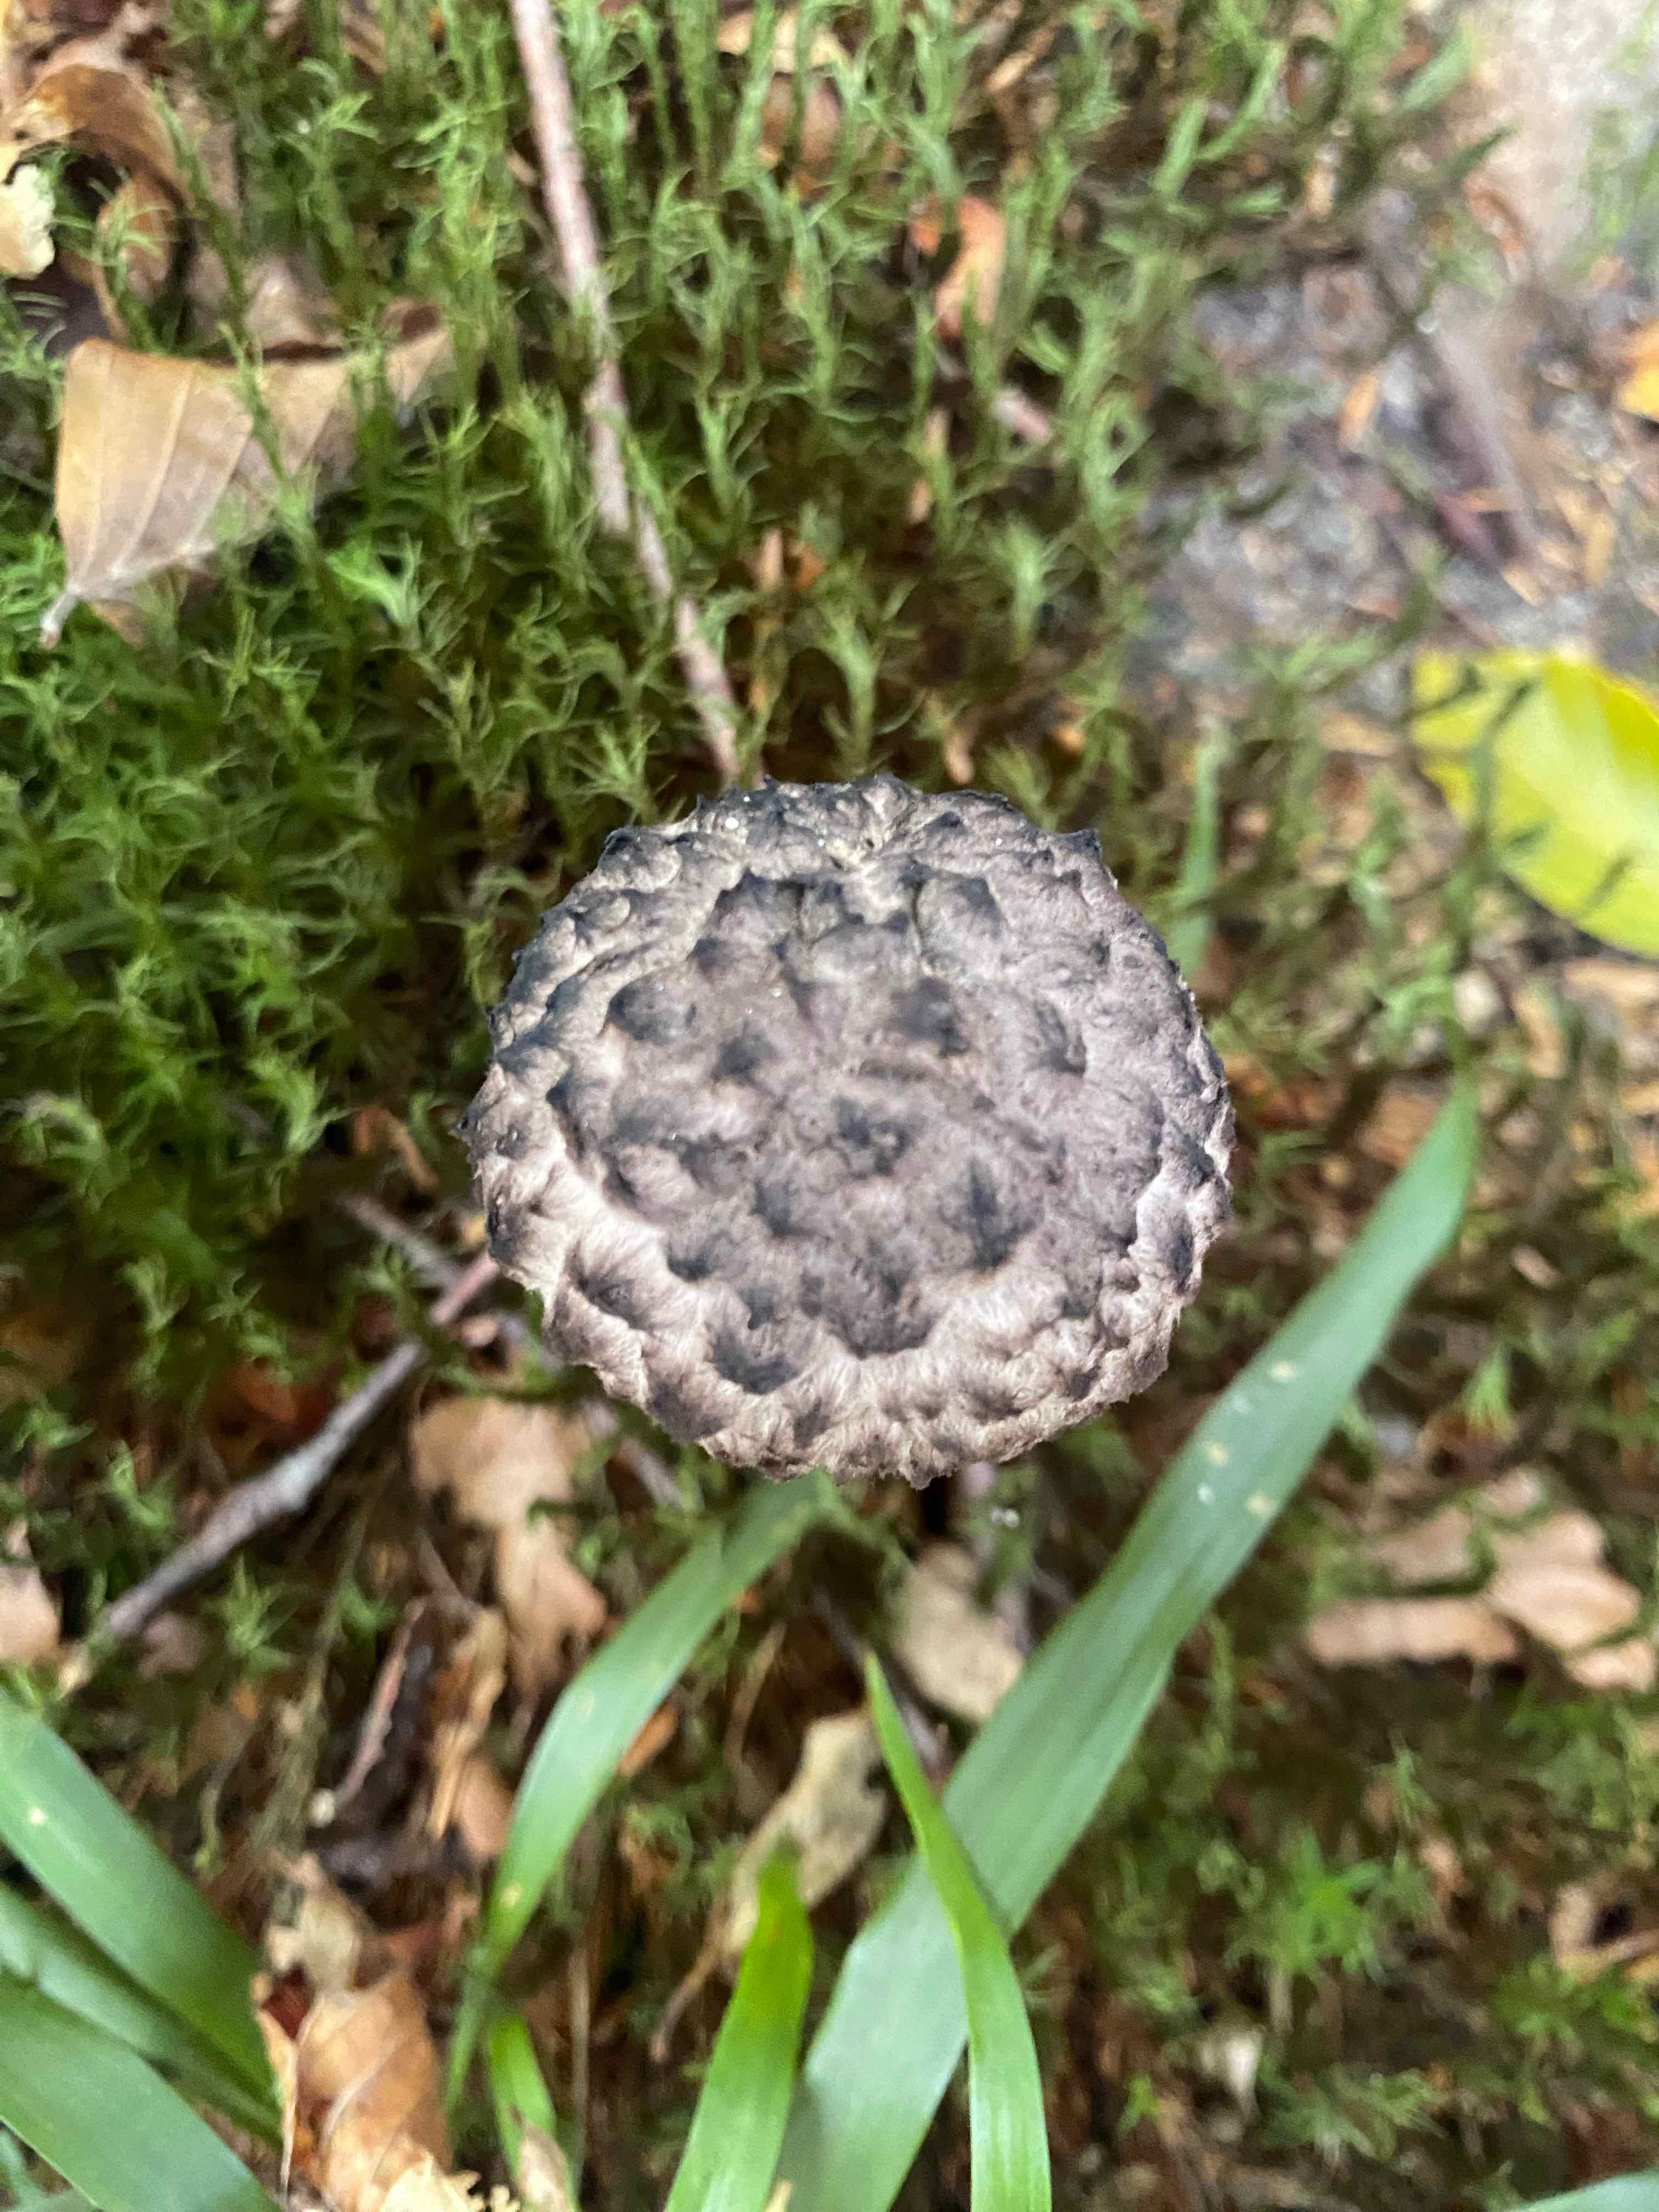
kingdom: Fungi
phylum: Basidiomycota
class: Agaricomycetes
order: Boletales
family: Boletaceae
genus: Strobilomyces
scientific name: Strobilomyces strobilaceus
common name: koglerørhat
